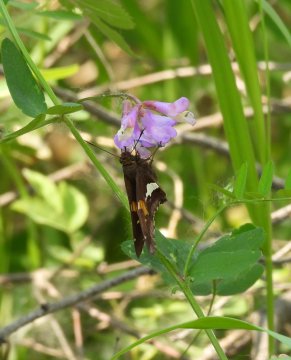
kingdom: Animalia
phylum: Arthropoda
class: Insecta
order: Lepidoptera
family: Hesperiidae
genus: Epargyreus
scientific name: Epargyreus clarus
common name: Silver-spotted Skipper
